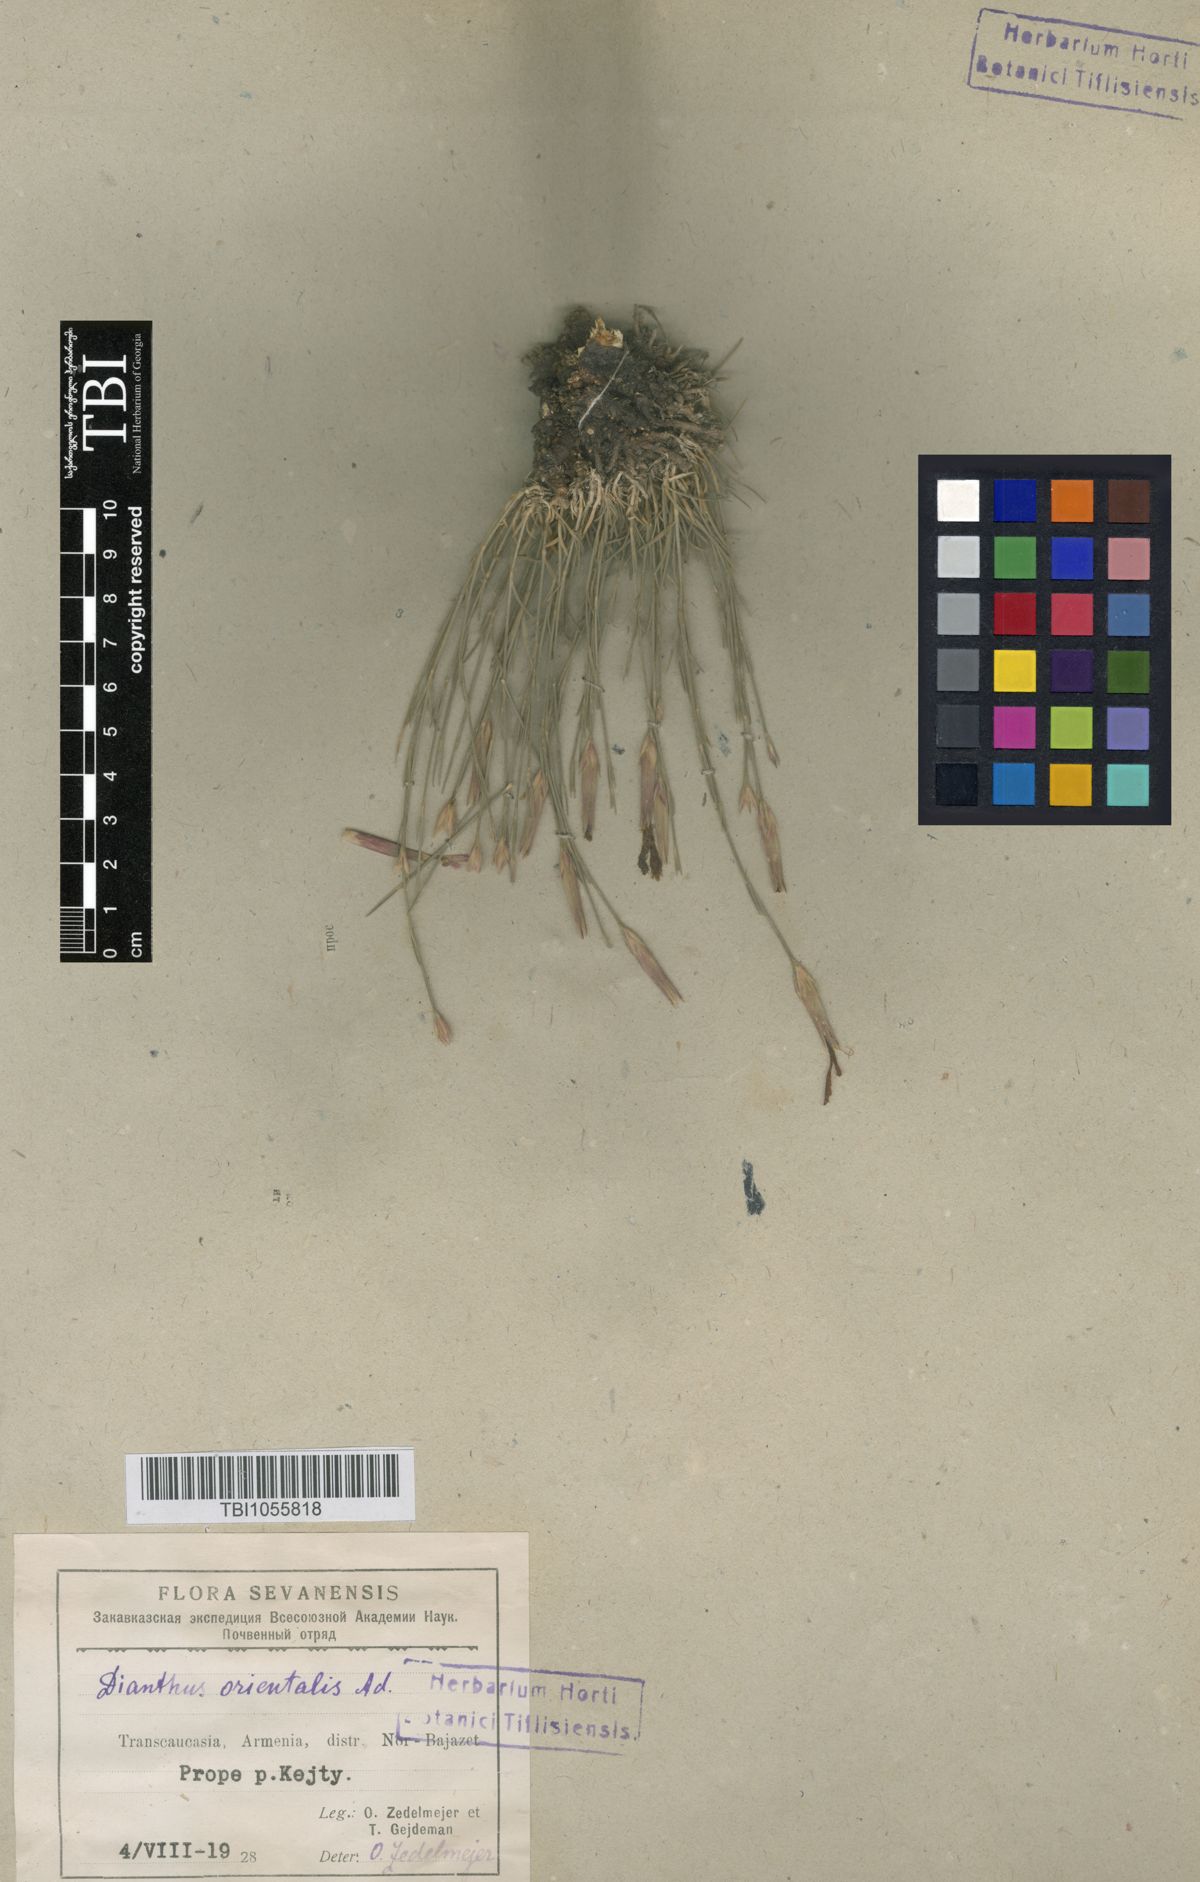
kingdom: Plantae
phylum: Tracheophyta
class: Magnoliopsida
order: Caryophyllales
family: Caryophyllaceae
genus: Dianthus
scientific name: Dianthus orientalis
